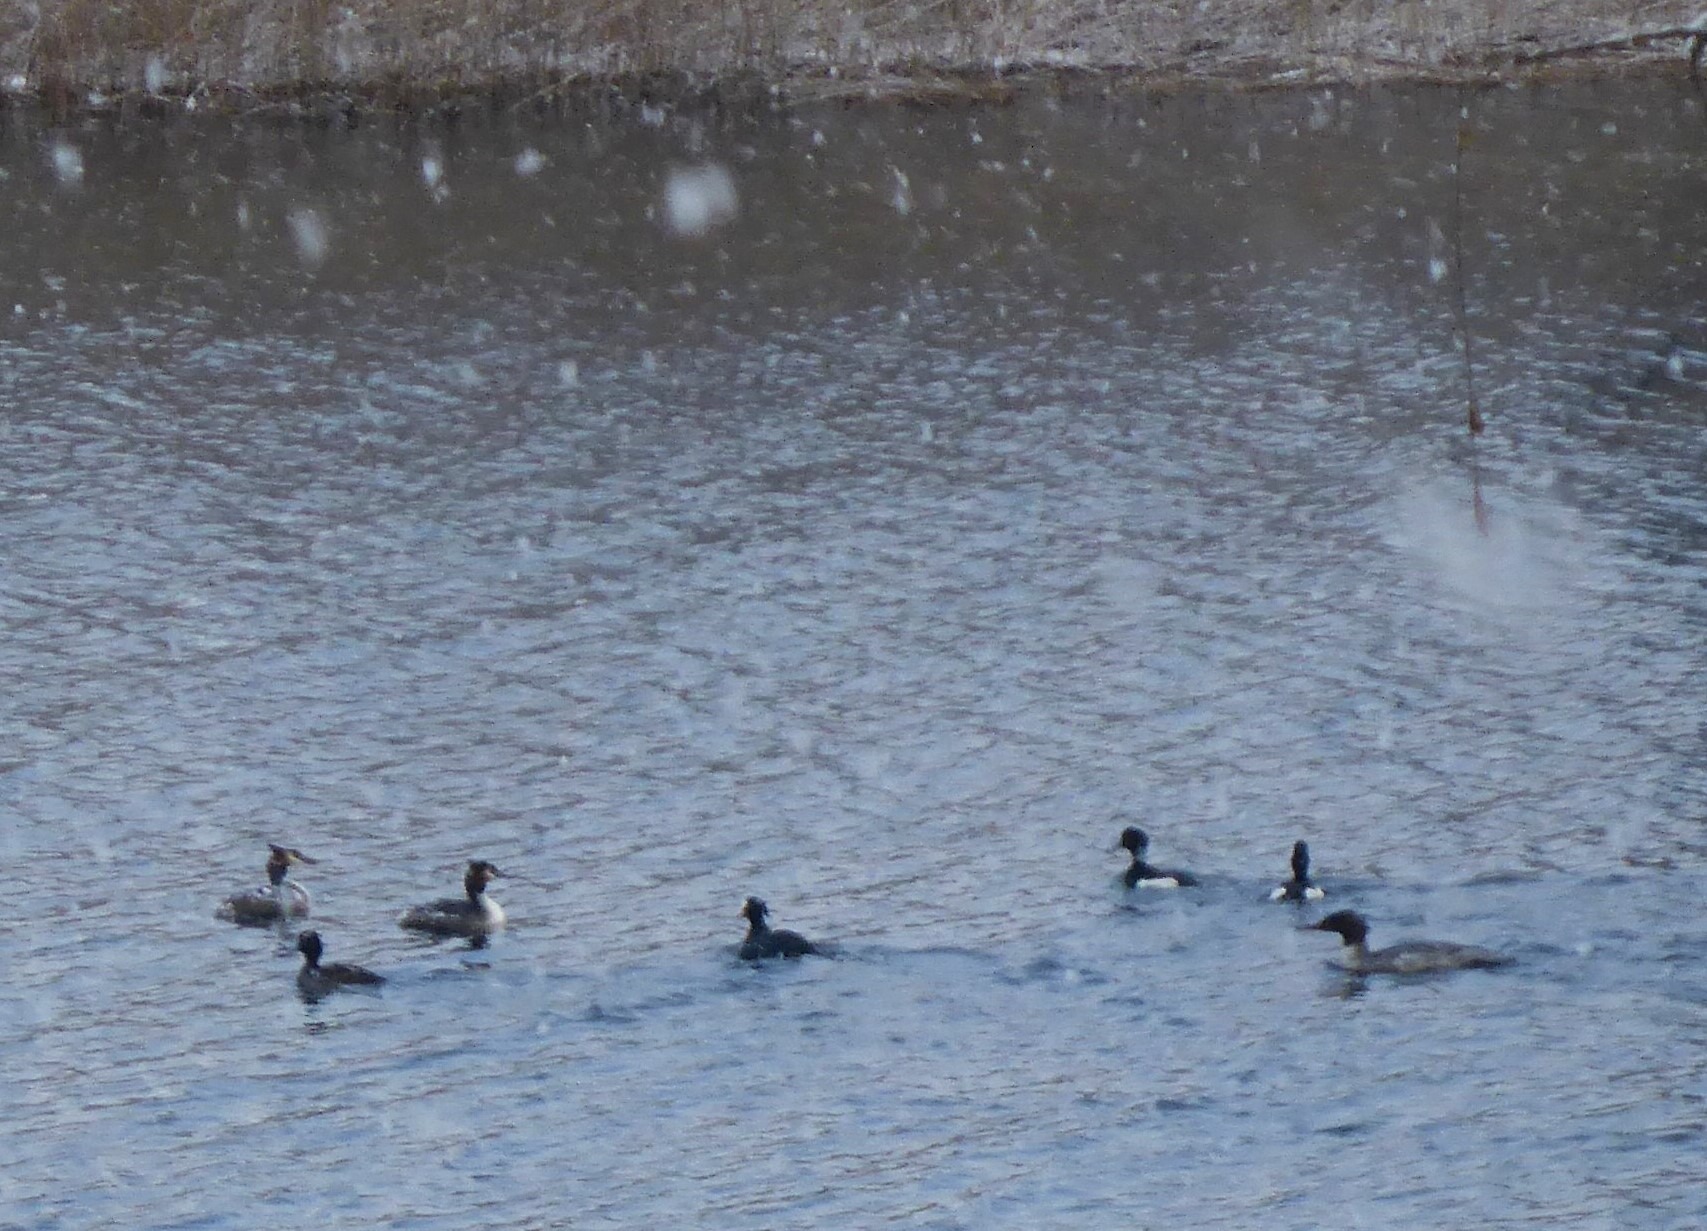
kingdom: Animalia
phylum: Chordata
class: Aves
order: Podicipediformes
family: Podicipedidae
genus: Podiceps
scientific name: Podiceps cristatus
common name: Toppet lappedykker
